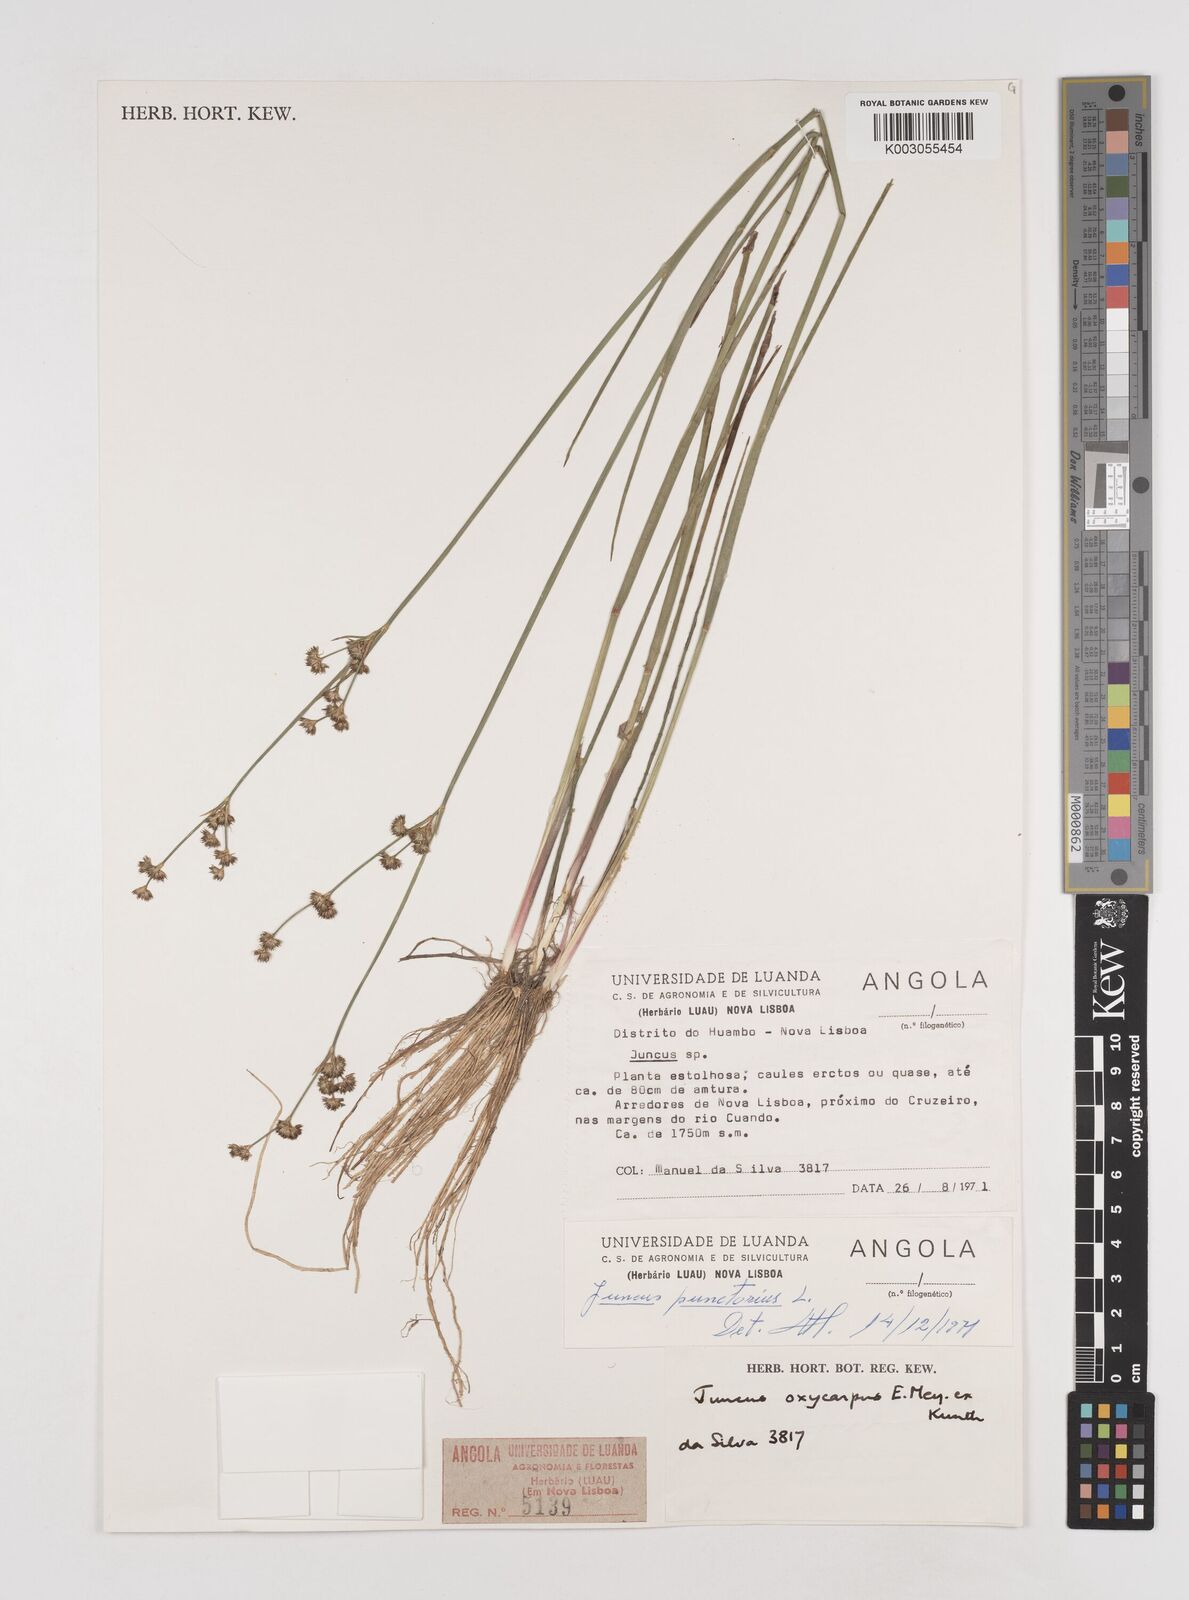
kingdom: Plantae
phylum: Tracheophyta
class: Liliopsida
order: Poales
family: Juncaceae
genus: Juncus
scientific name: Juncus oxycarpus
